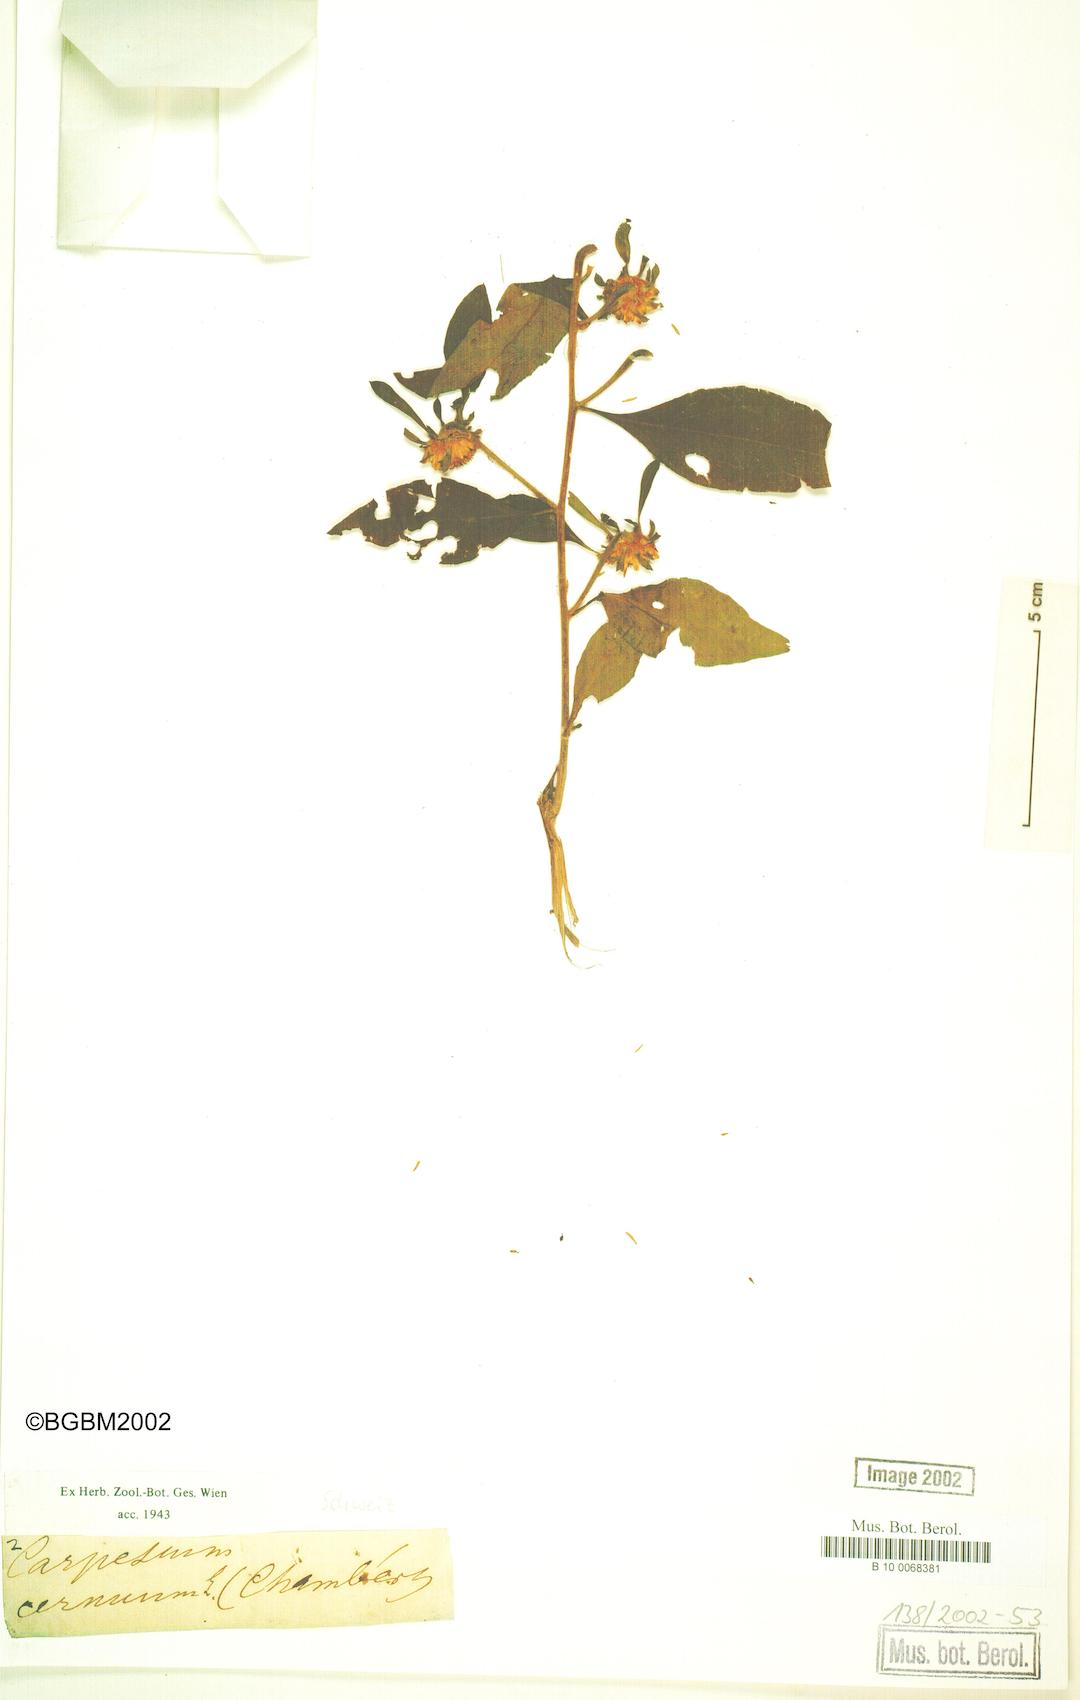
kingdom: Plantae
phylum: Tracheophyta
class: Magnoliopsida
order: Asterales
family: Asteraceae
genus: Carpesium
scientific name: Carpesium cernuum
